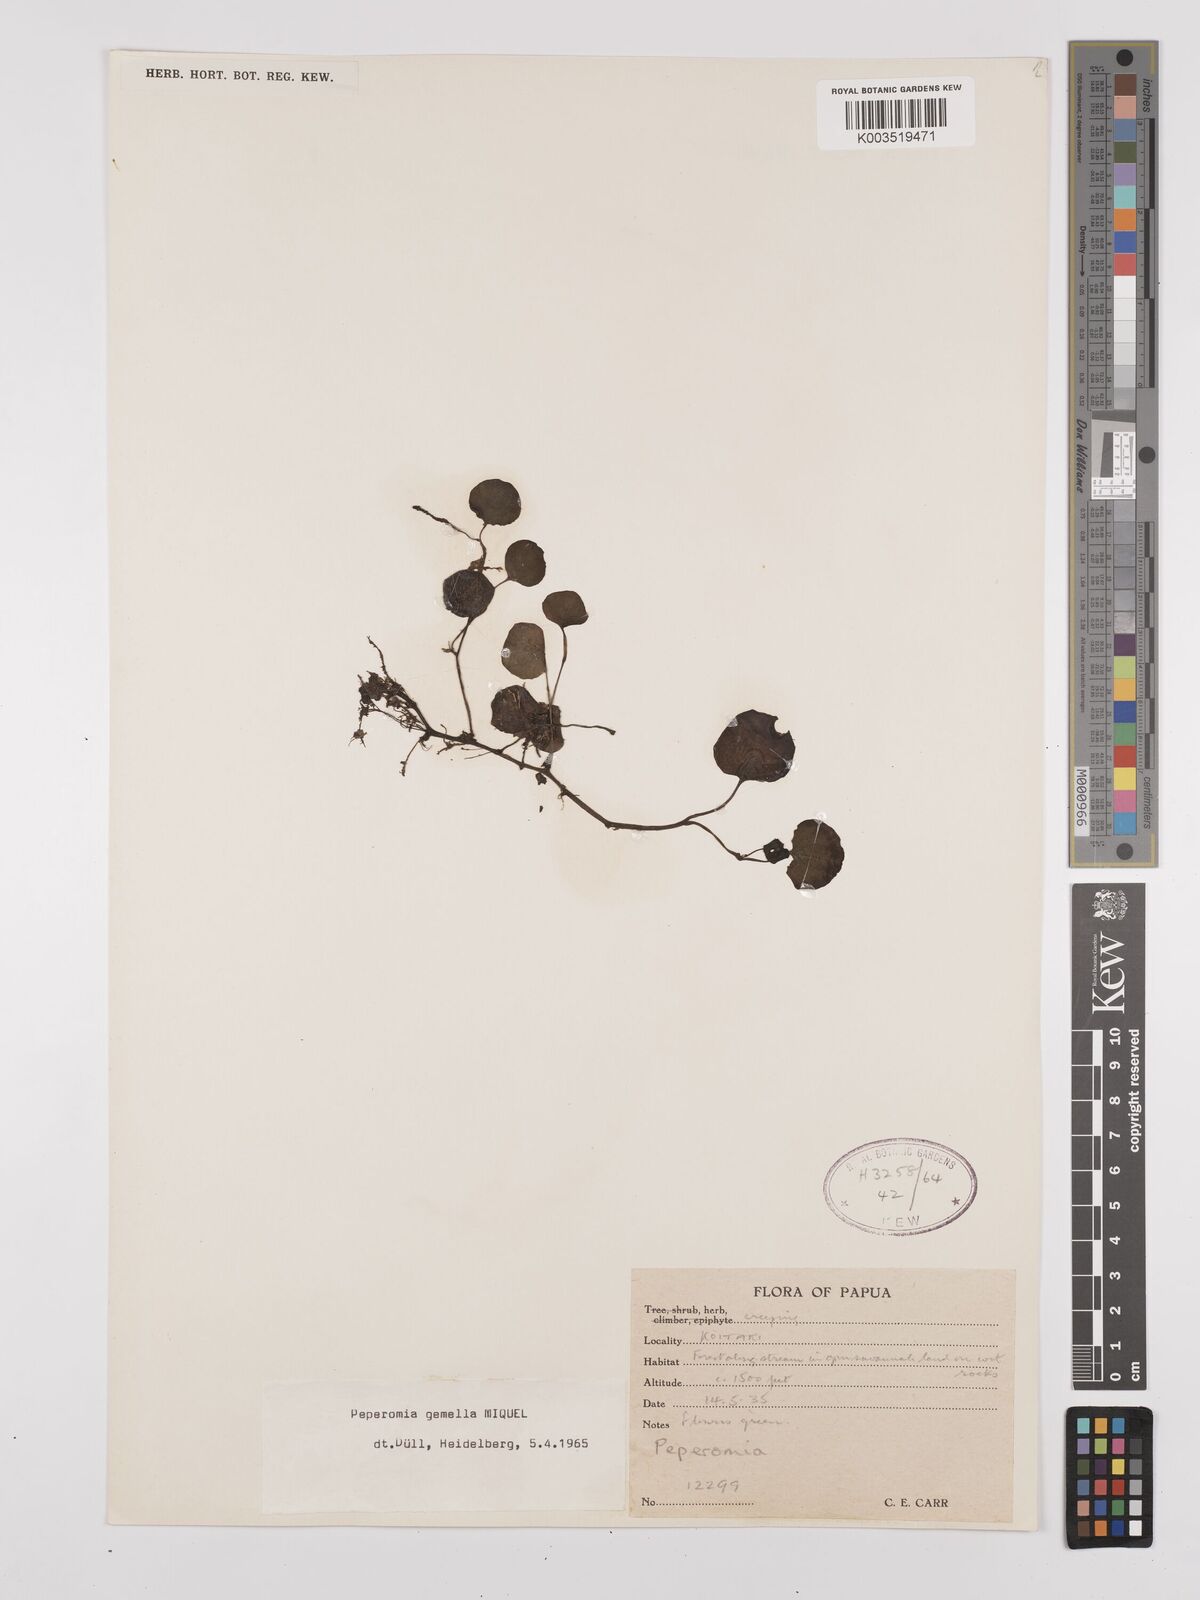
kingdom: Plantae
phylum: Tracheophyta
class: Magnoliopsida
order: Piperales
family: Piperaceae
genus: Peperomia
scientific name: Peperomia gemella
